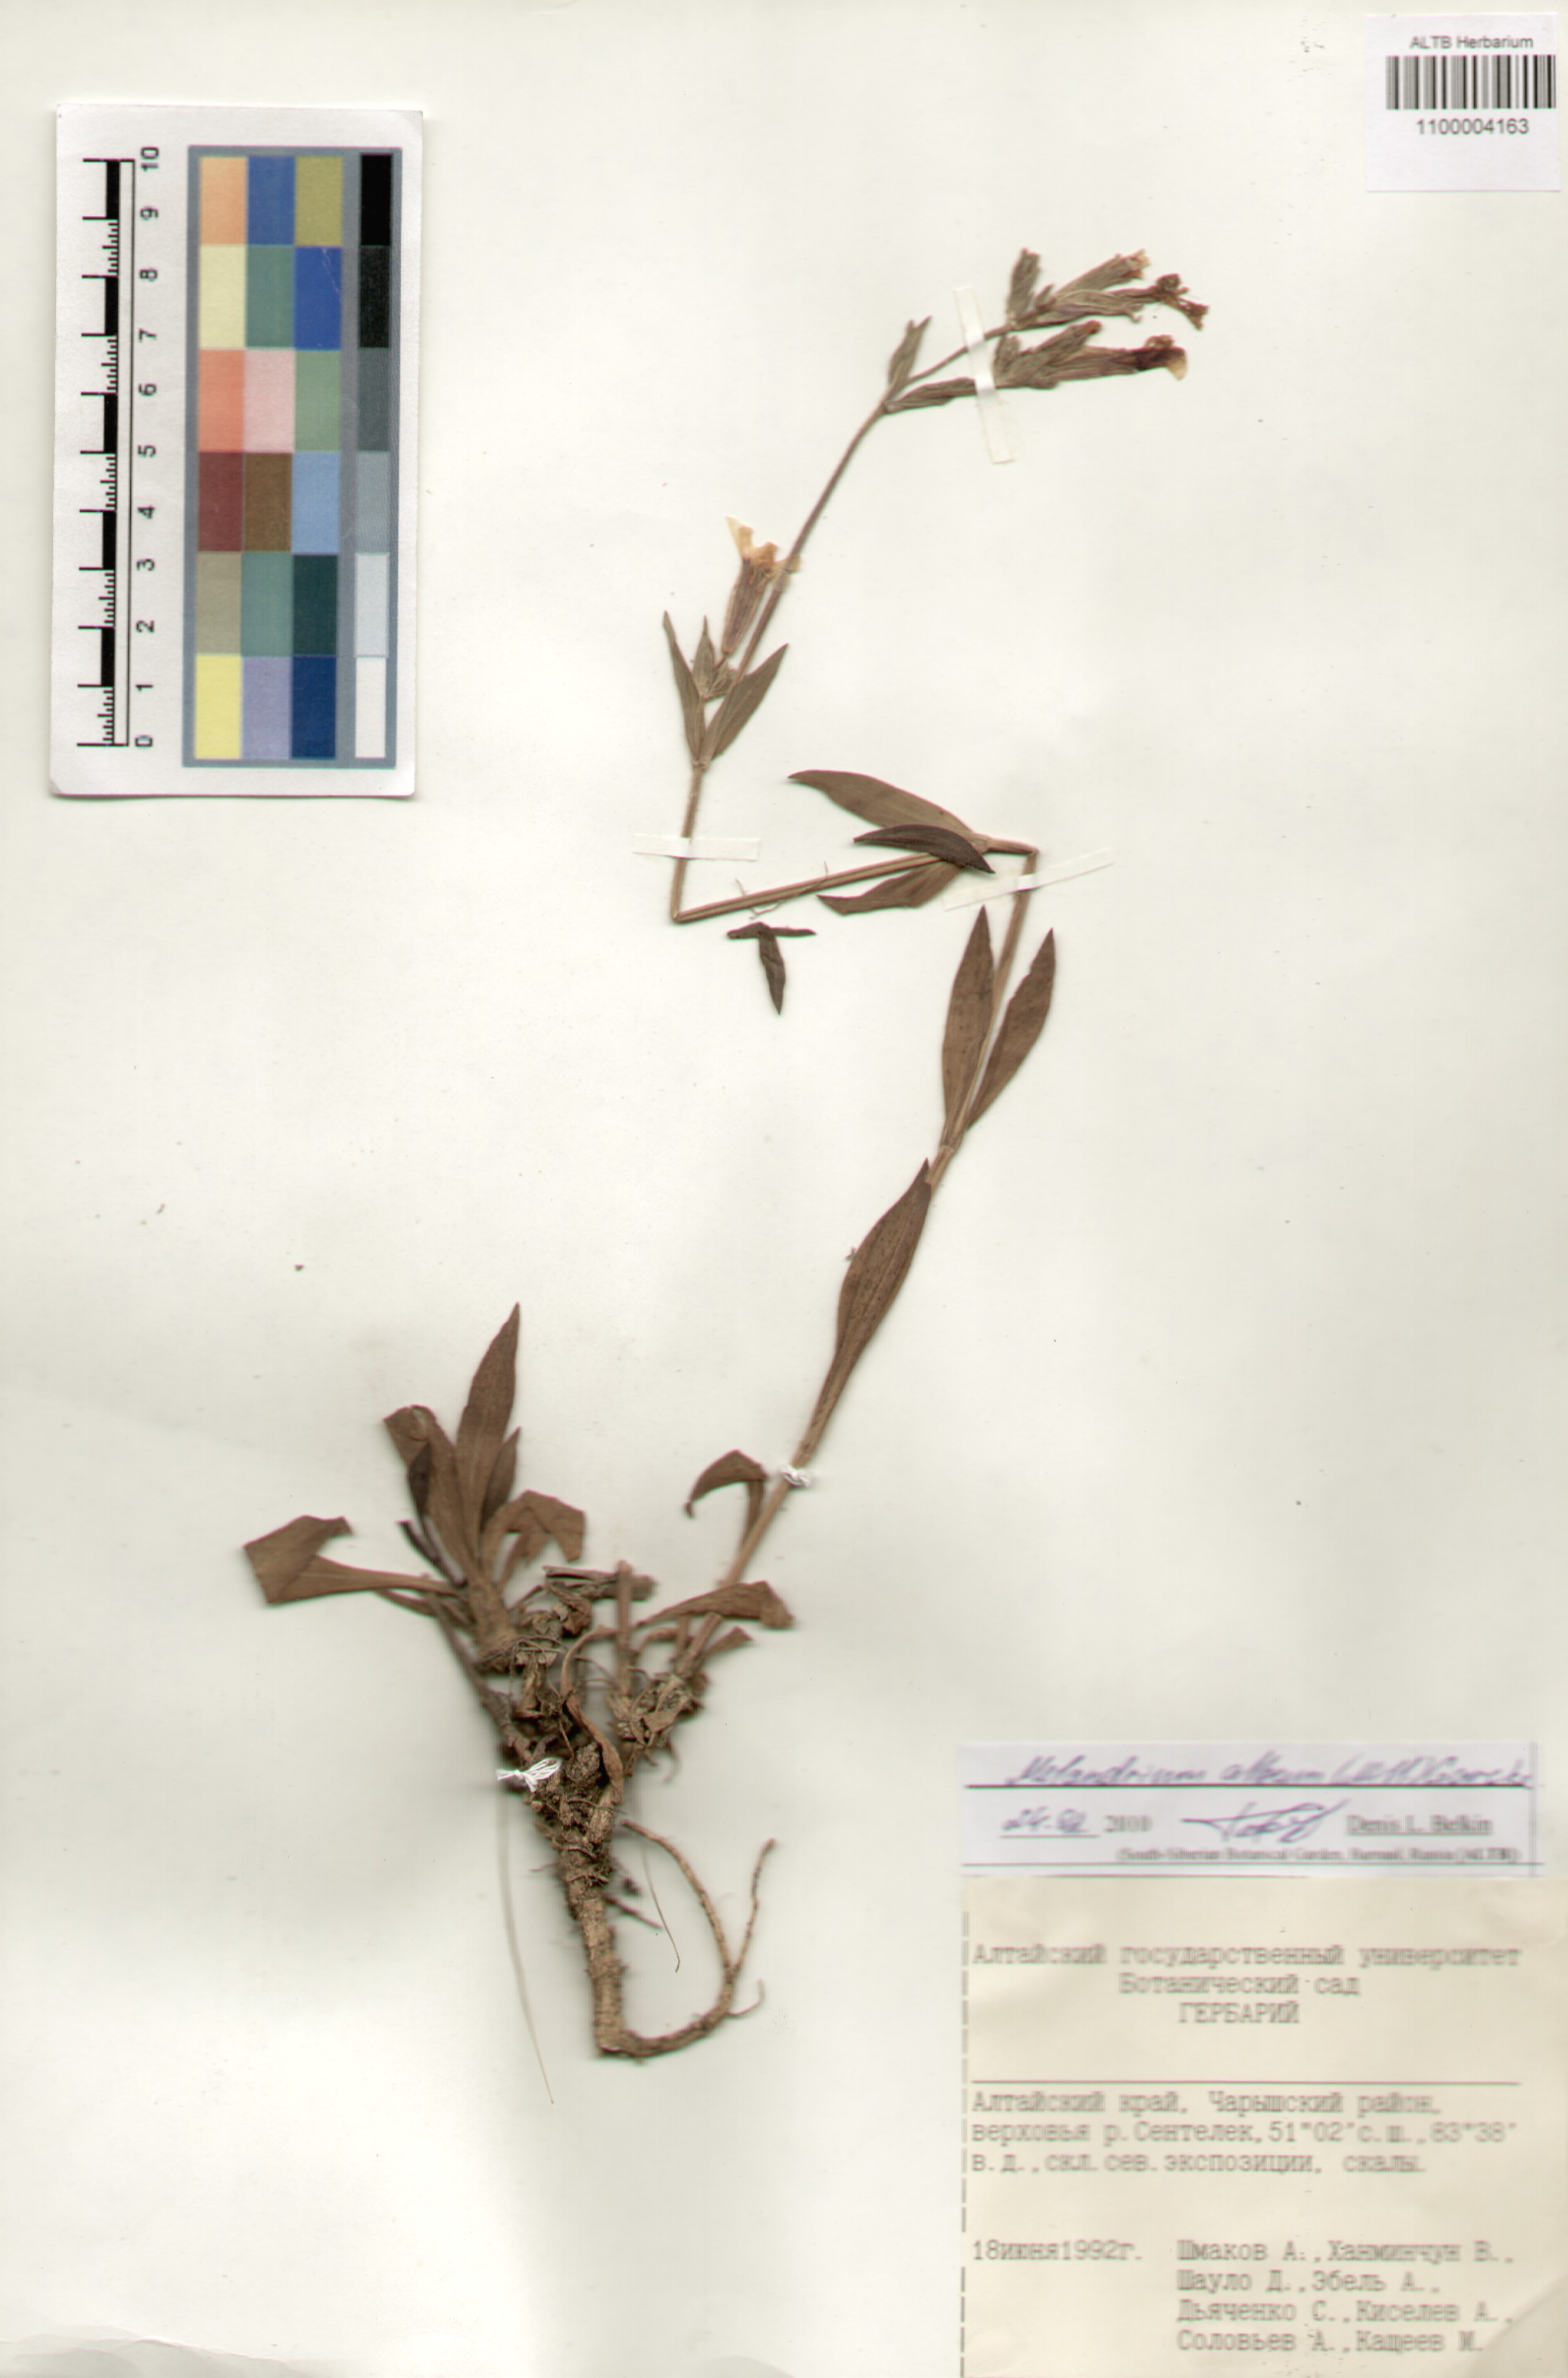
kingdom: Plantae
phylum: Tracheophyta
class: Magnoliopsida
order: Caryophyllales
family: Caryophyllaceae
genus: Silene
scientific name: Silene latifolia
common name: White campion
